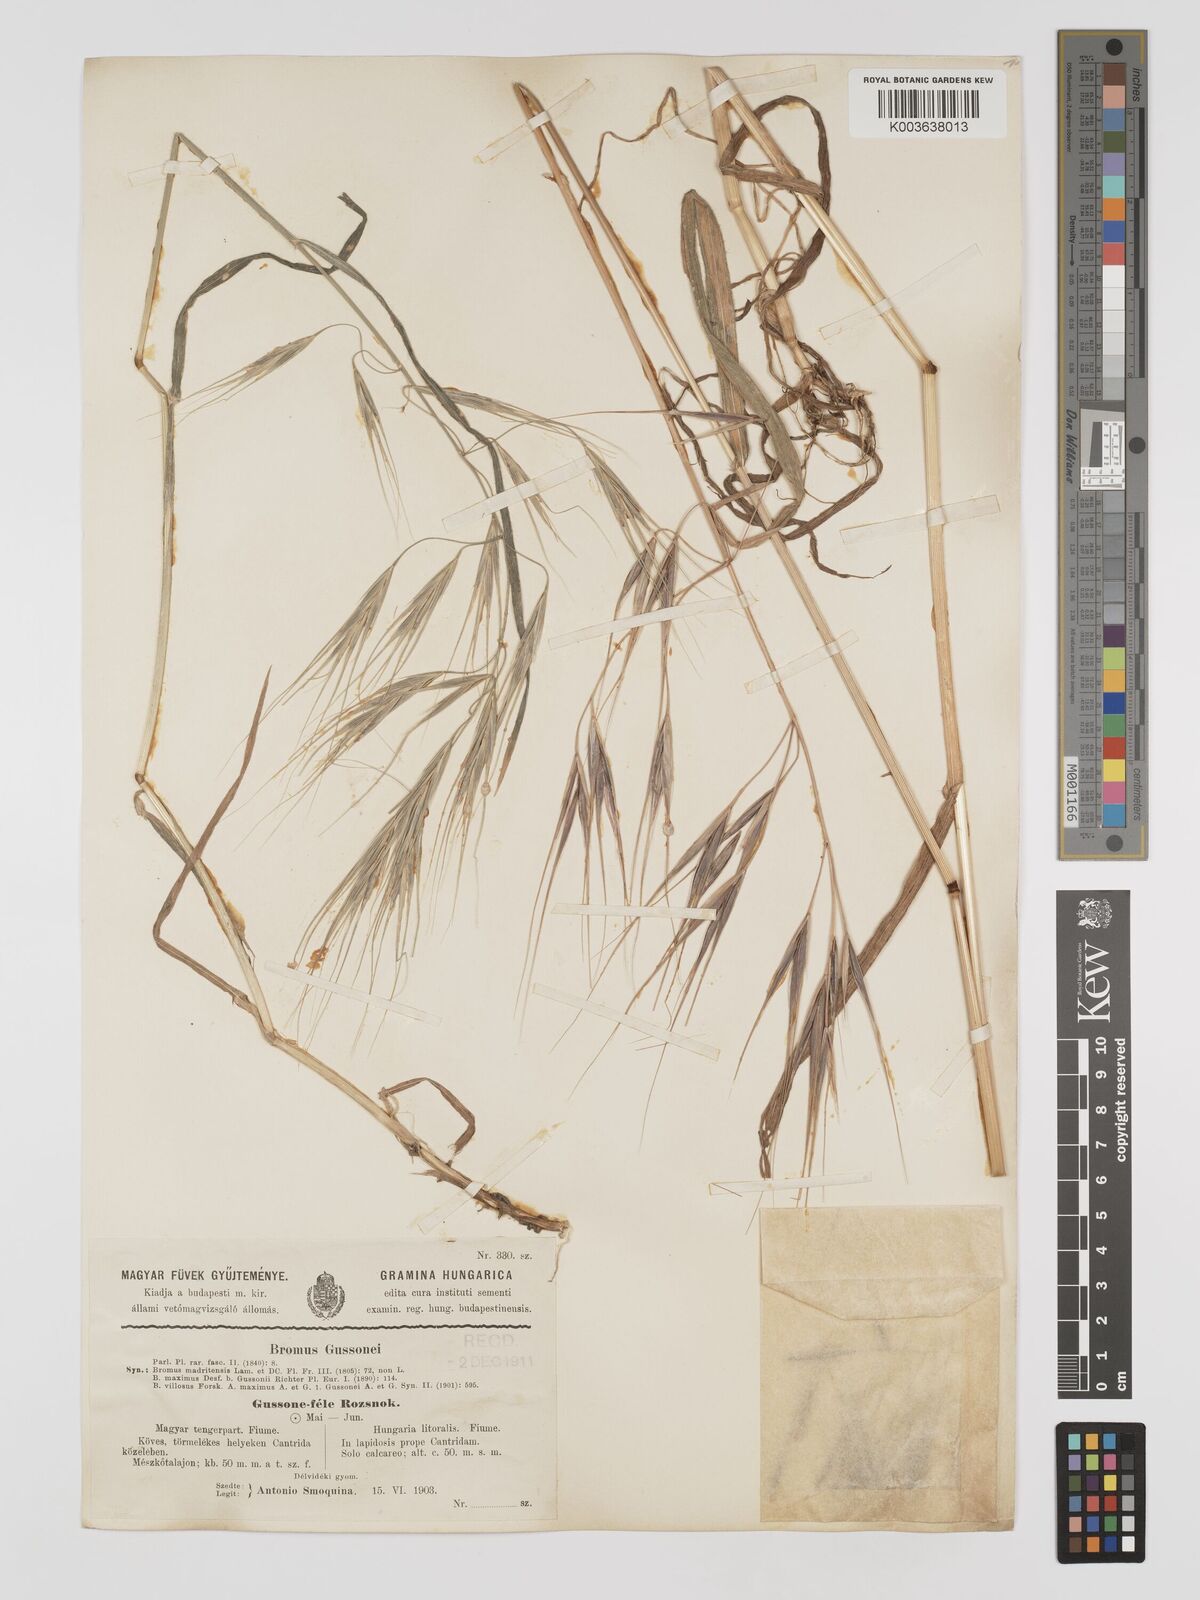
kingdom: Plantae
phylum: Tracheophyta
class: Liliopsida
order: Poales
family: Poaceae
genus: Bromus
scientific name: Bromus
